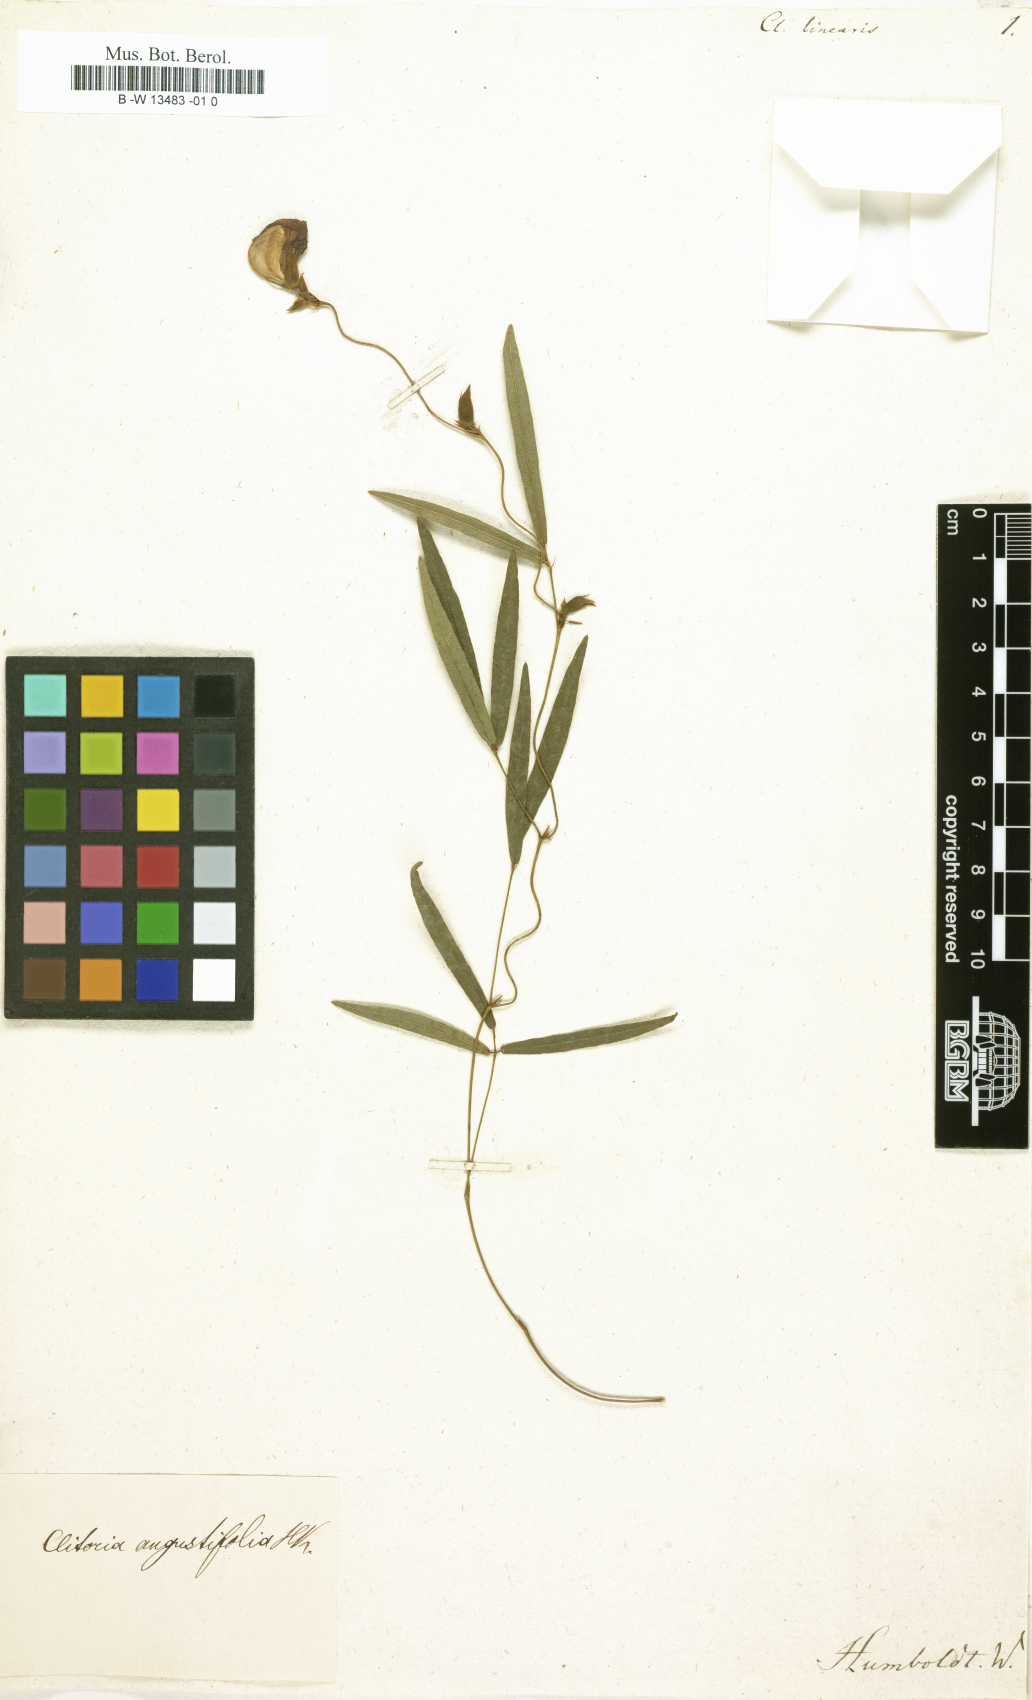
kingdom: Plantae
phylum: Tracheophyta
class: Magnoliopsida
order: Fabales
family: Fabaceae
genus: Clitoria
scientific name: Clitoria linearis
